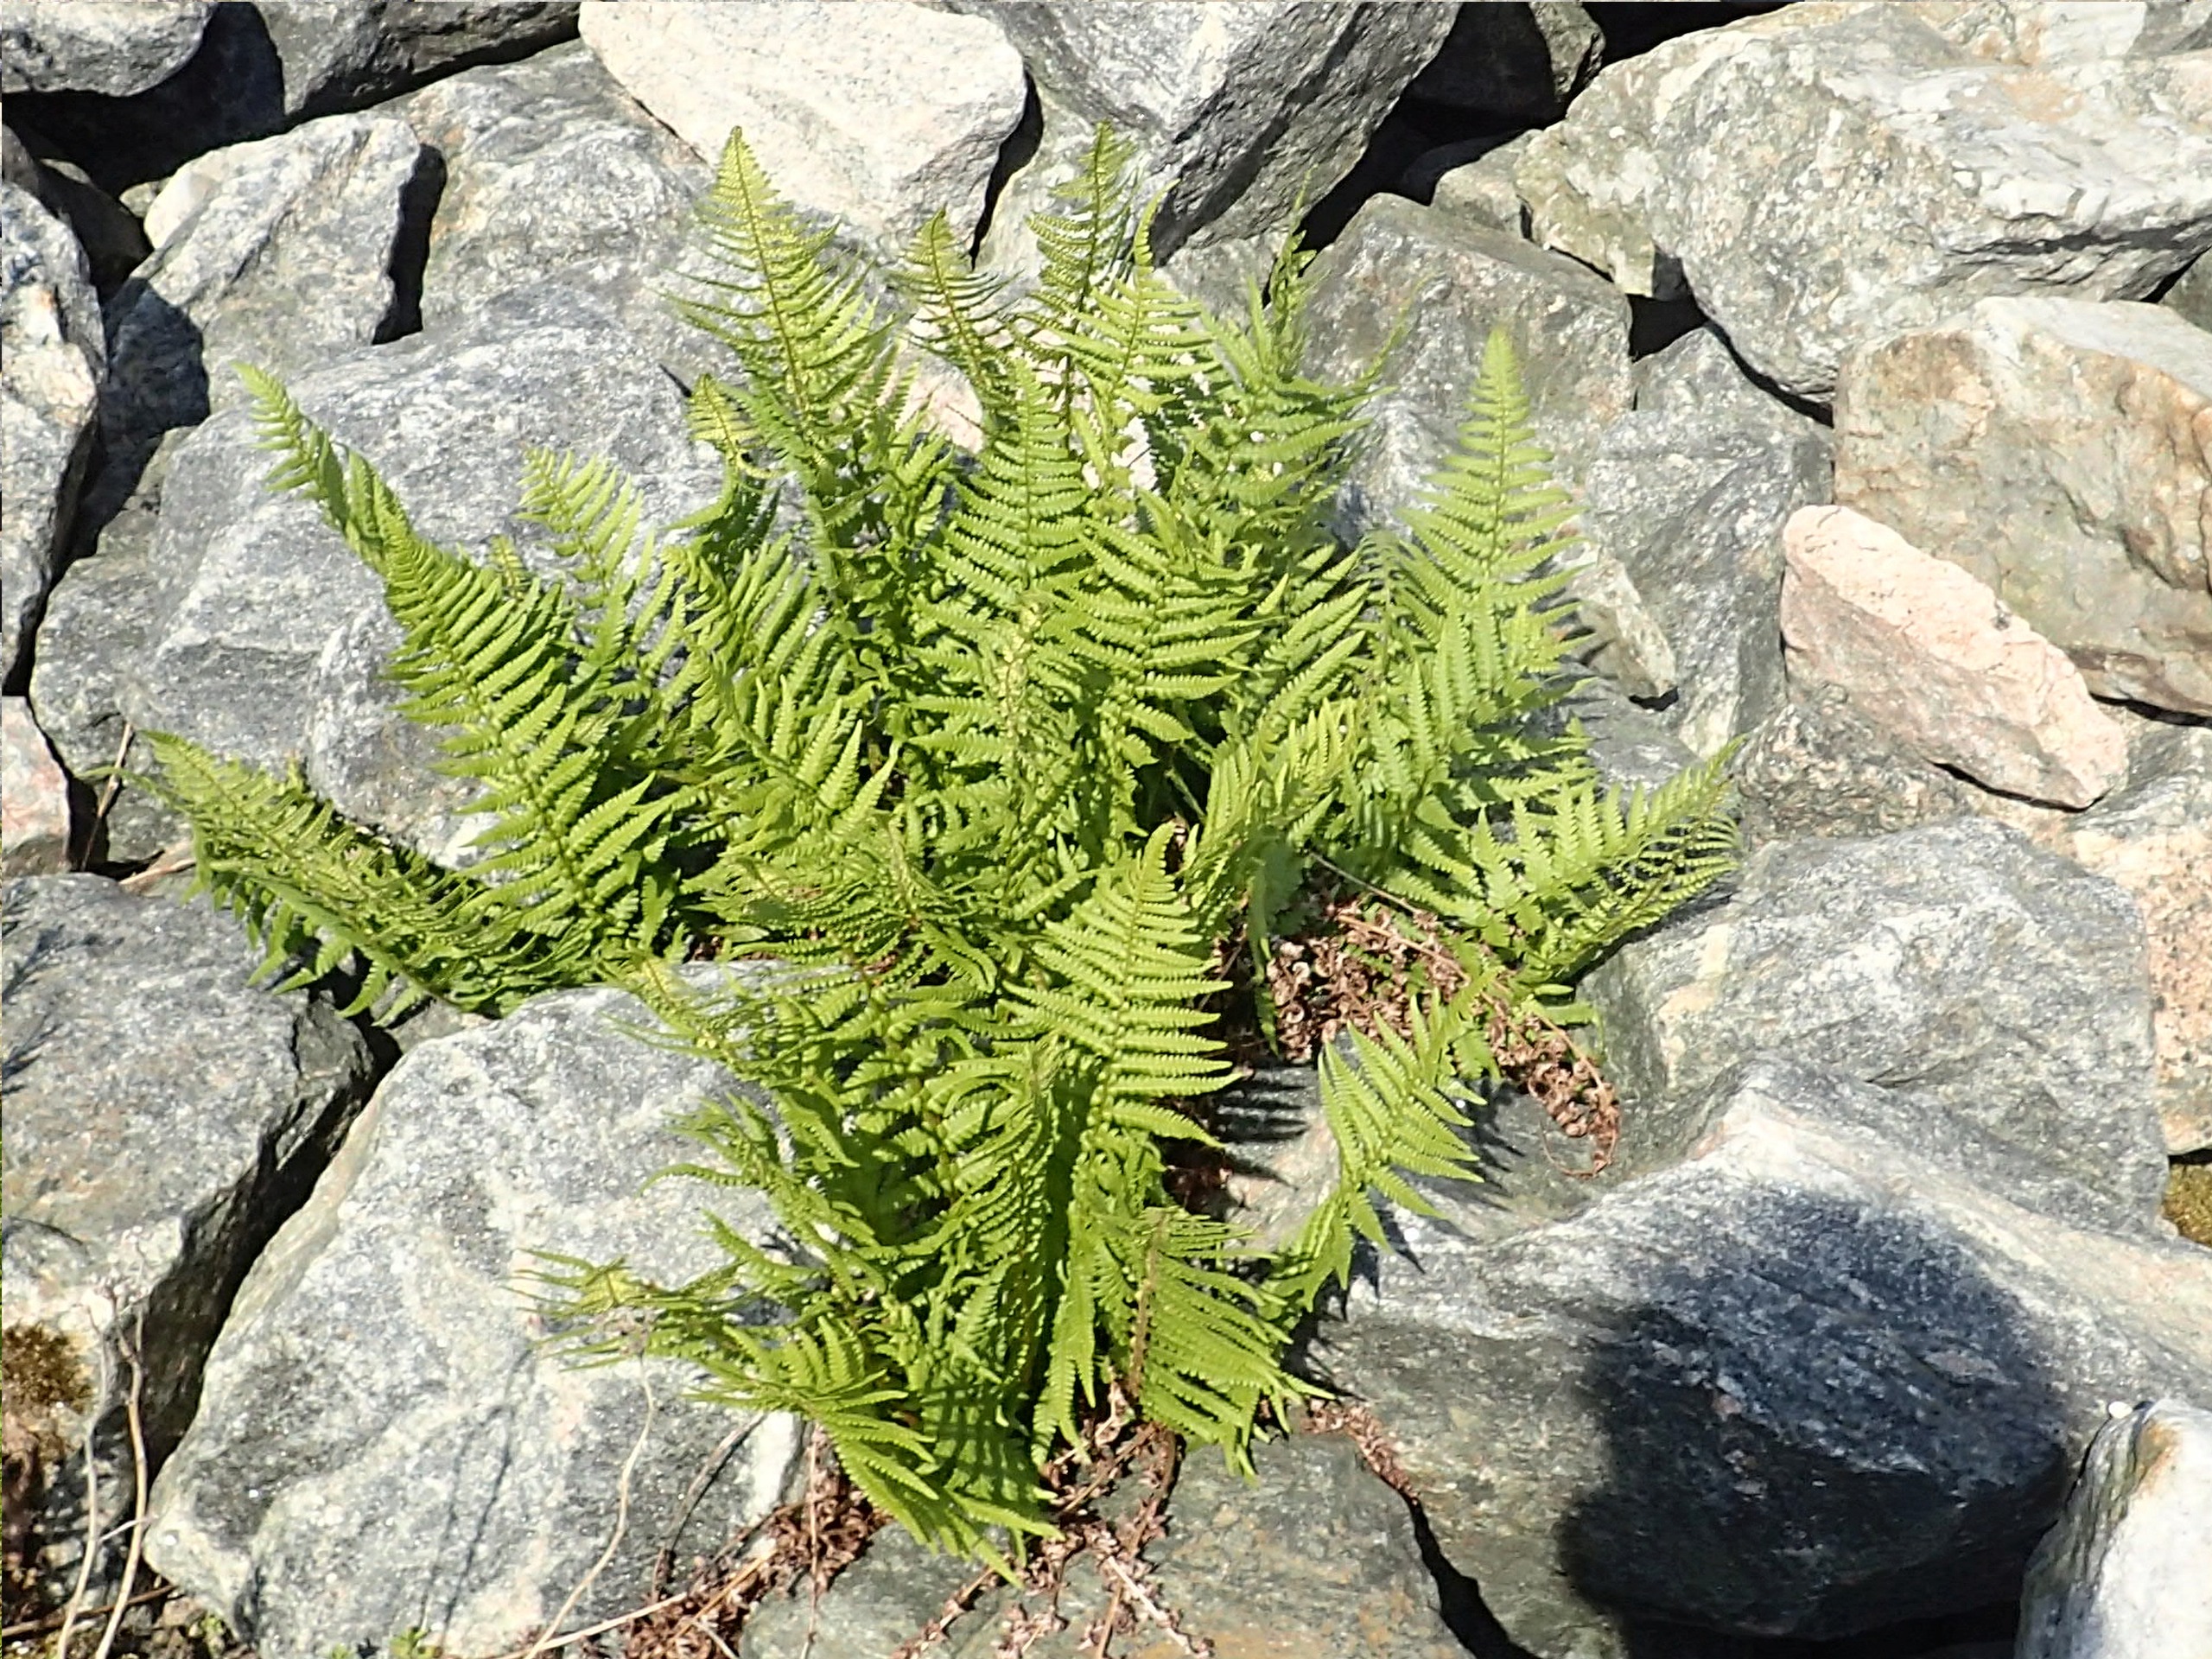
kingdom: Plantae
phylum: Tracheophyta
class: Polypodiopsida
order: Polypodiales
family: Dryopteridaceae
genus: Dryopteris
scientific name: Dryopteris filix-mas
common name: Almindelig mangeløv
